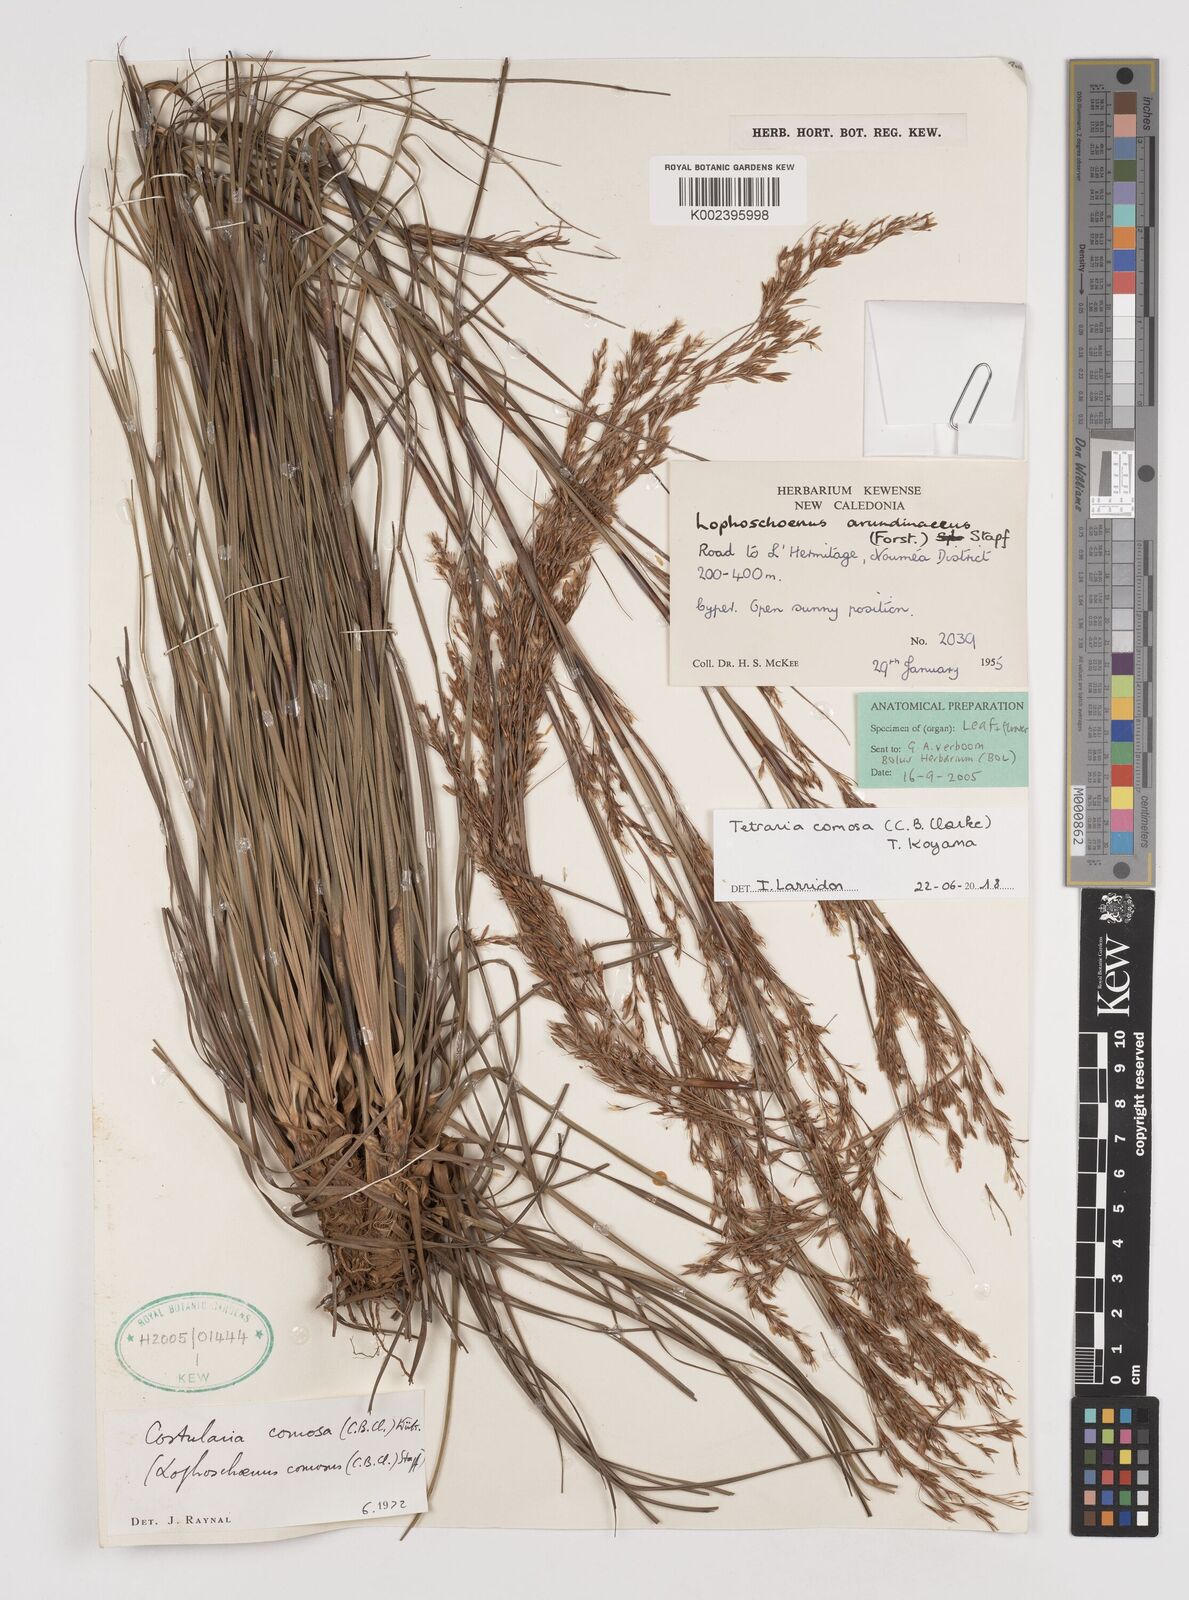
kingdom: Plantae
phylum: Tracheophyta
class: Liliopsida
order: Poales
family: Cyperaceae
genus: Tetraria
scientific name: Tetraria comosa
